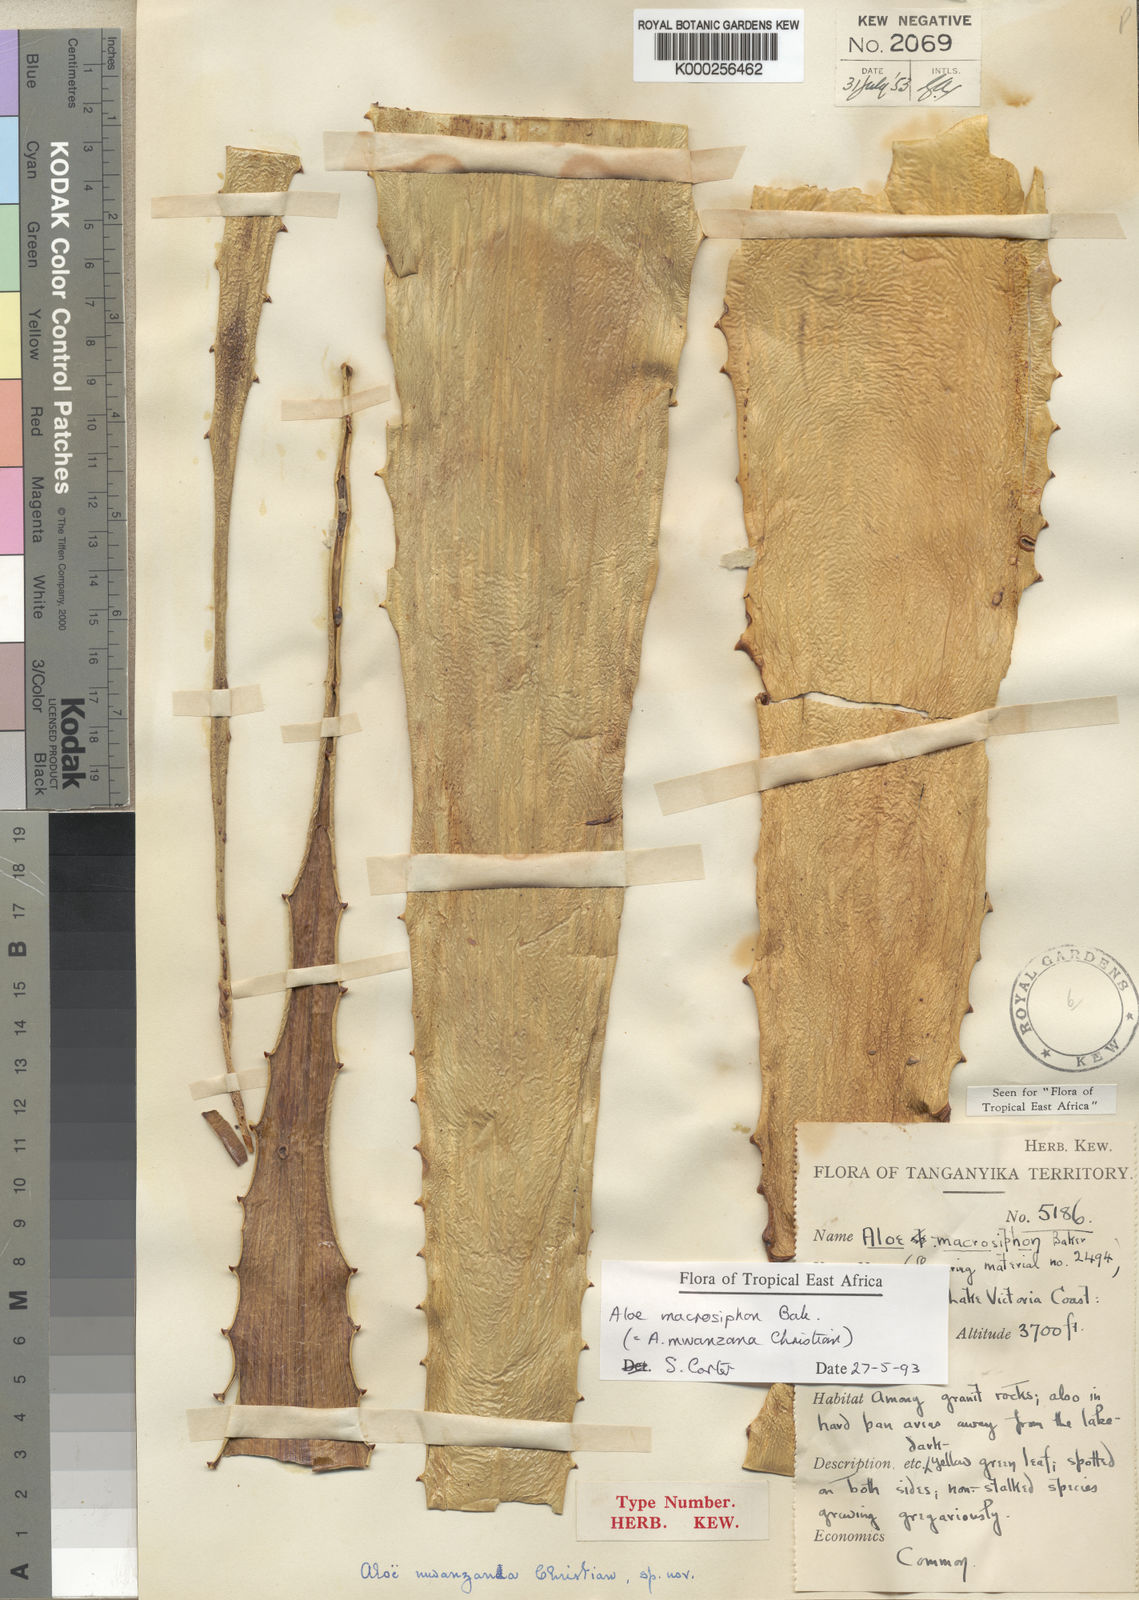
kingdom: Plantae
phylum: Tracheophyta
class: Liliopsida
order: Asparagales
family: Asphodelaceae
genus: Aloe
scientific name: Aloe macrosiphon
